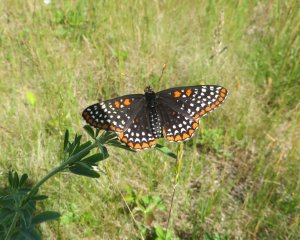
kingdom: Animalia
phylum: Arthropoda
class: Insecta
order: Lepidoptera
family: Nymphalidae
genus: Euphydryas
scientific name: Euphydryas phaeton
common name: Baltimore Checkerspot
